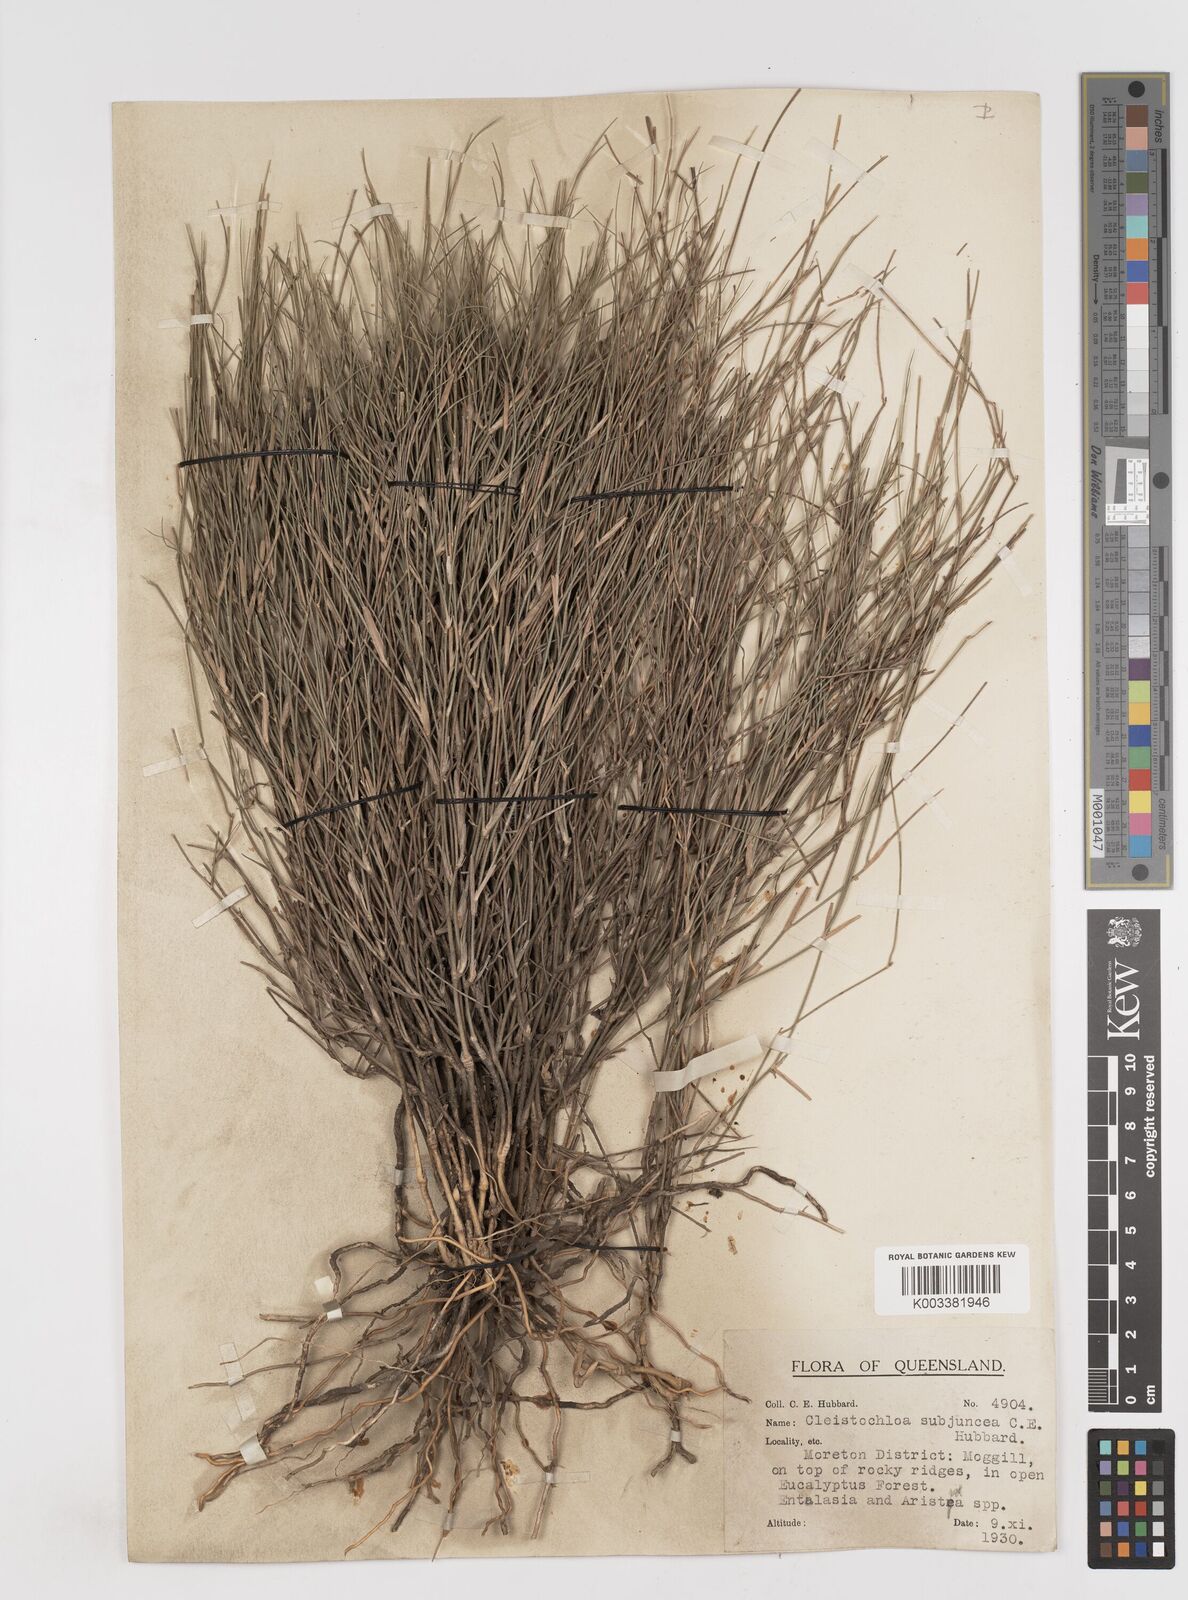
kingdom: Plantae
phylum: Tracheophyta
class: Liliopsida
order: Poales
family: Poaceae
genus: Cleistochloa
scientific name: Cleistochloa subjuncea
